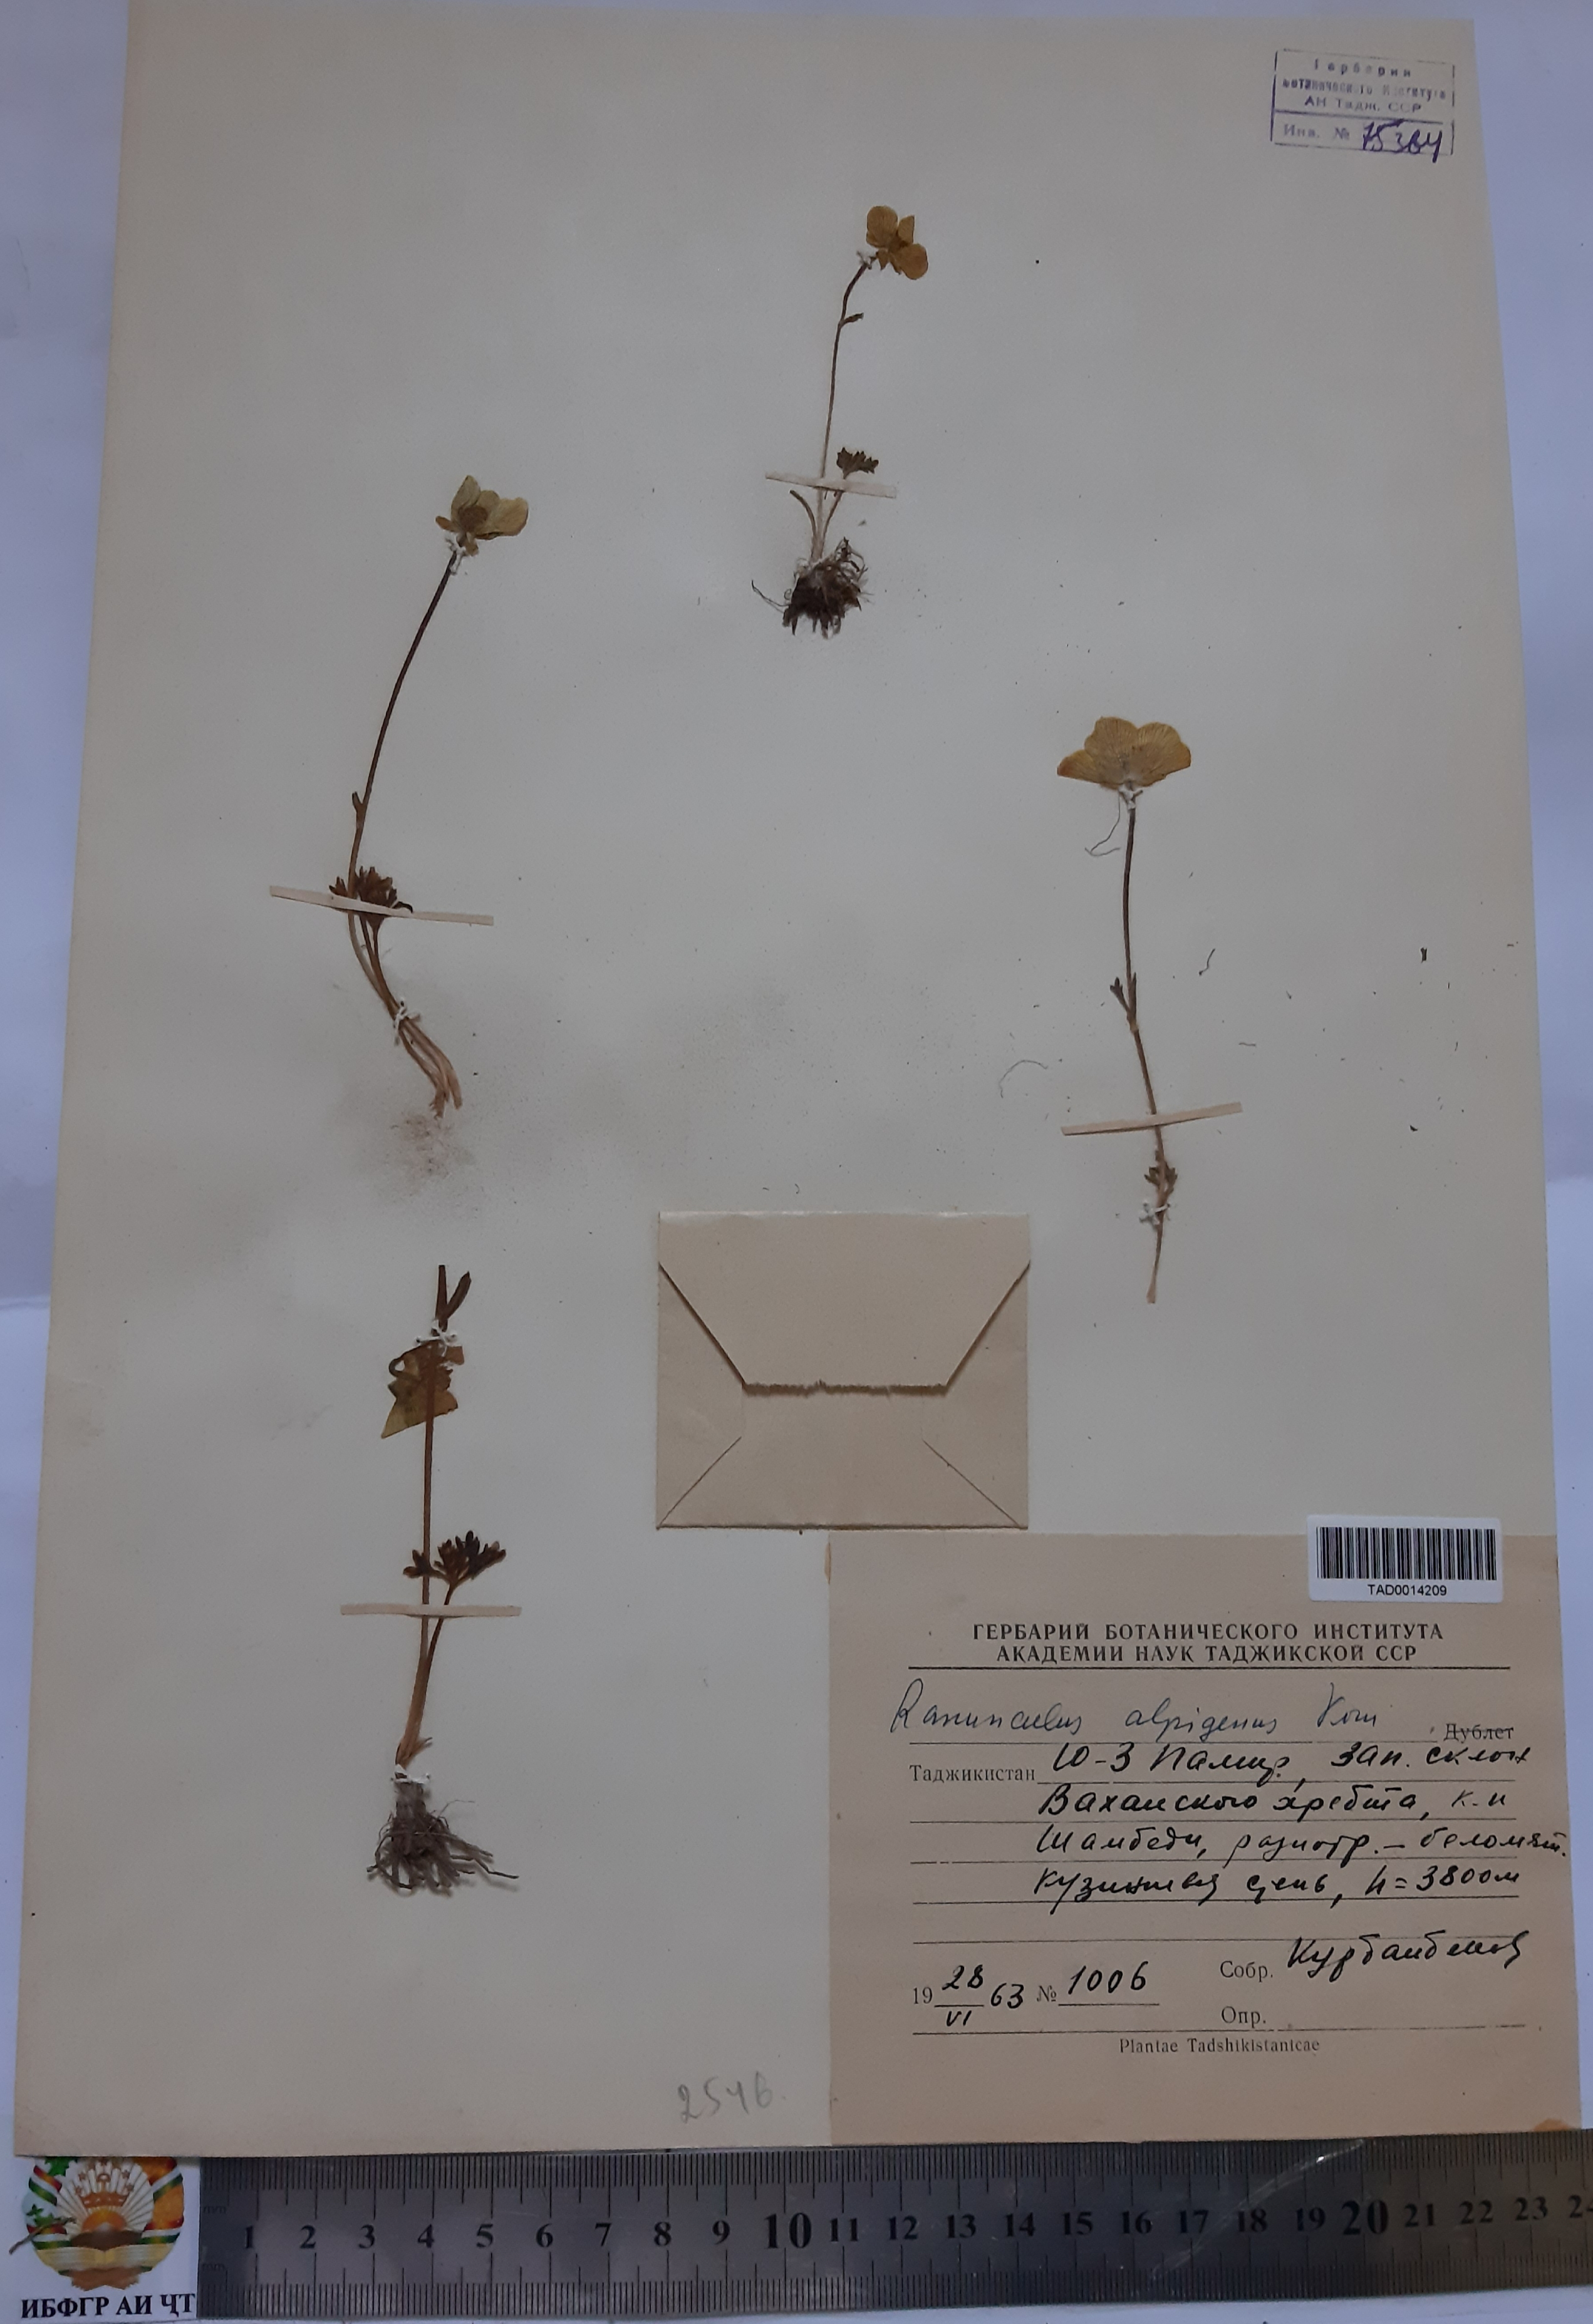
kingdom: Plantae
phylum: Tracheophyta
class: Magnoliopsida
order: Ranunculales
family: Ranunculaceae
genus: Ranunculus
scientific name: Ranunculus alpigenus
